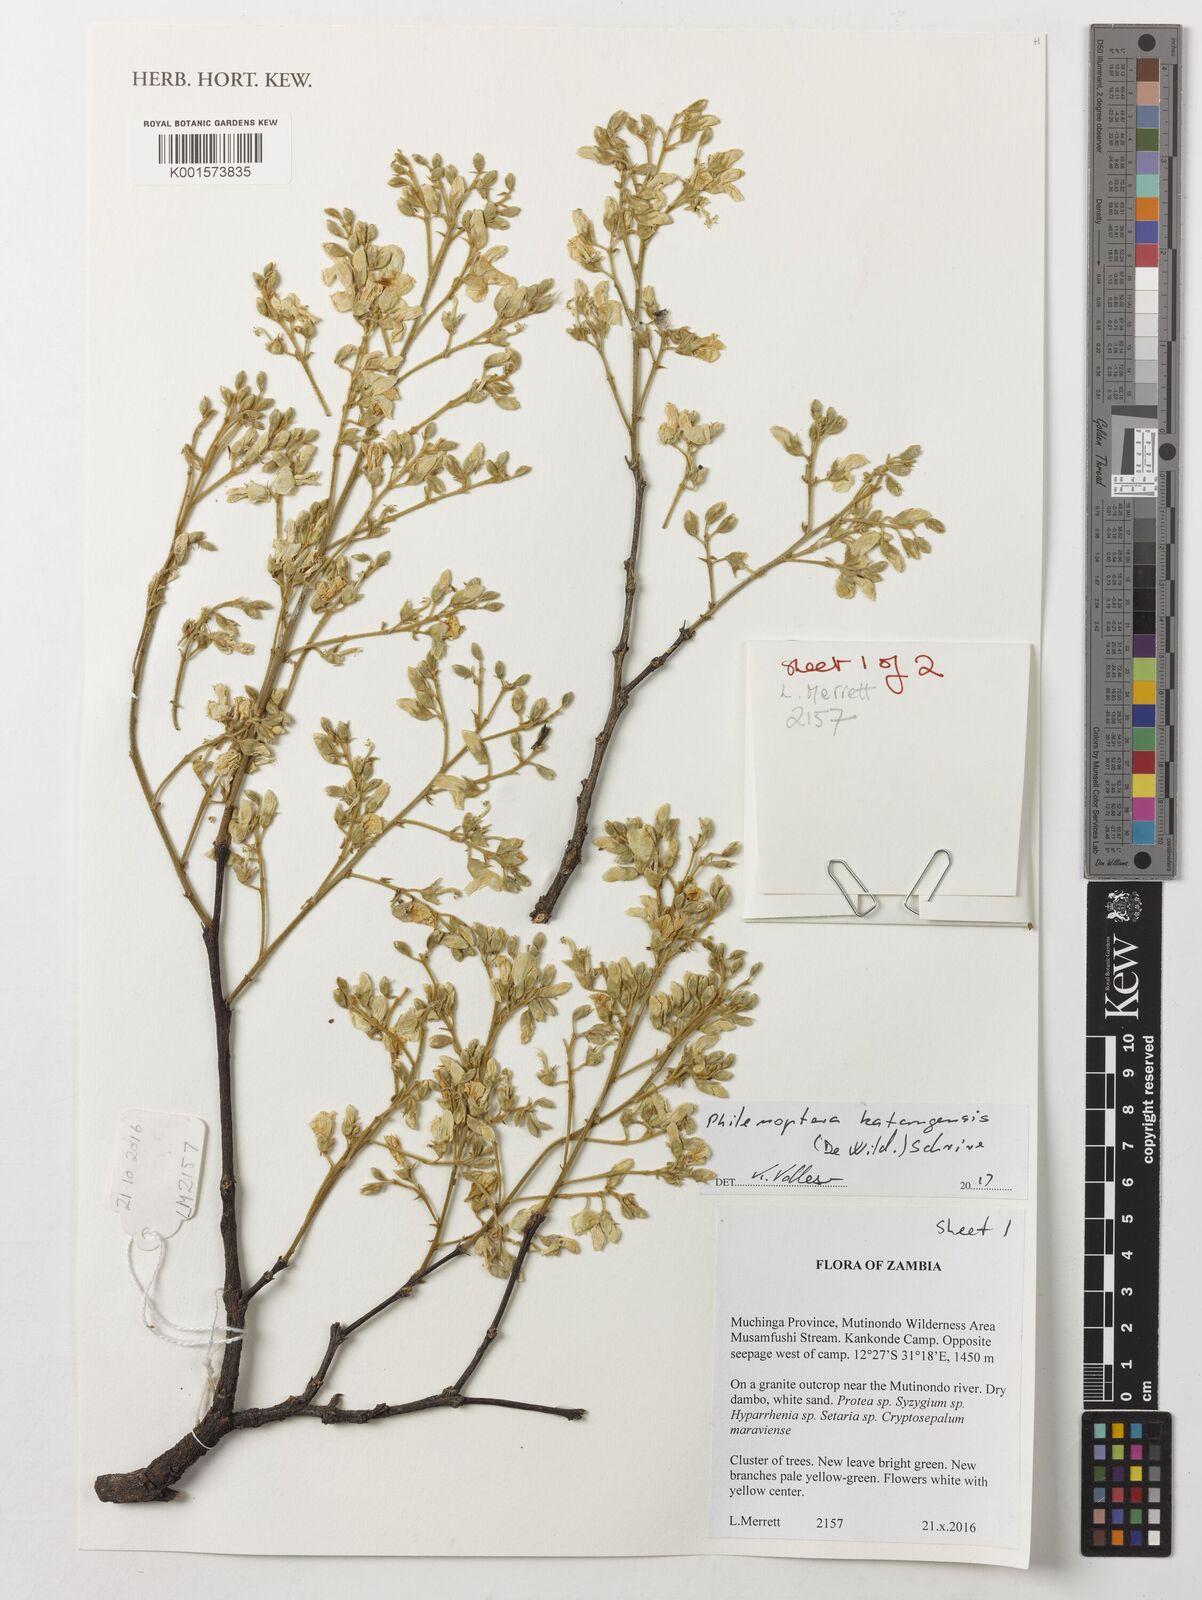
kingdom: Plantae
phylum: Tracheophyta
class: Magnoliopsida
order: Fabales
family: Fabaceae
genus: Philenoptera
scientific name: Philenoptera katangensis
